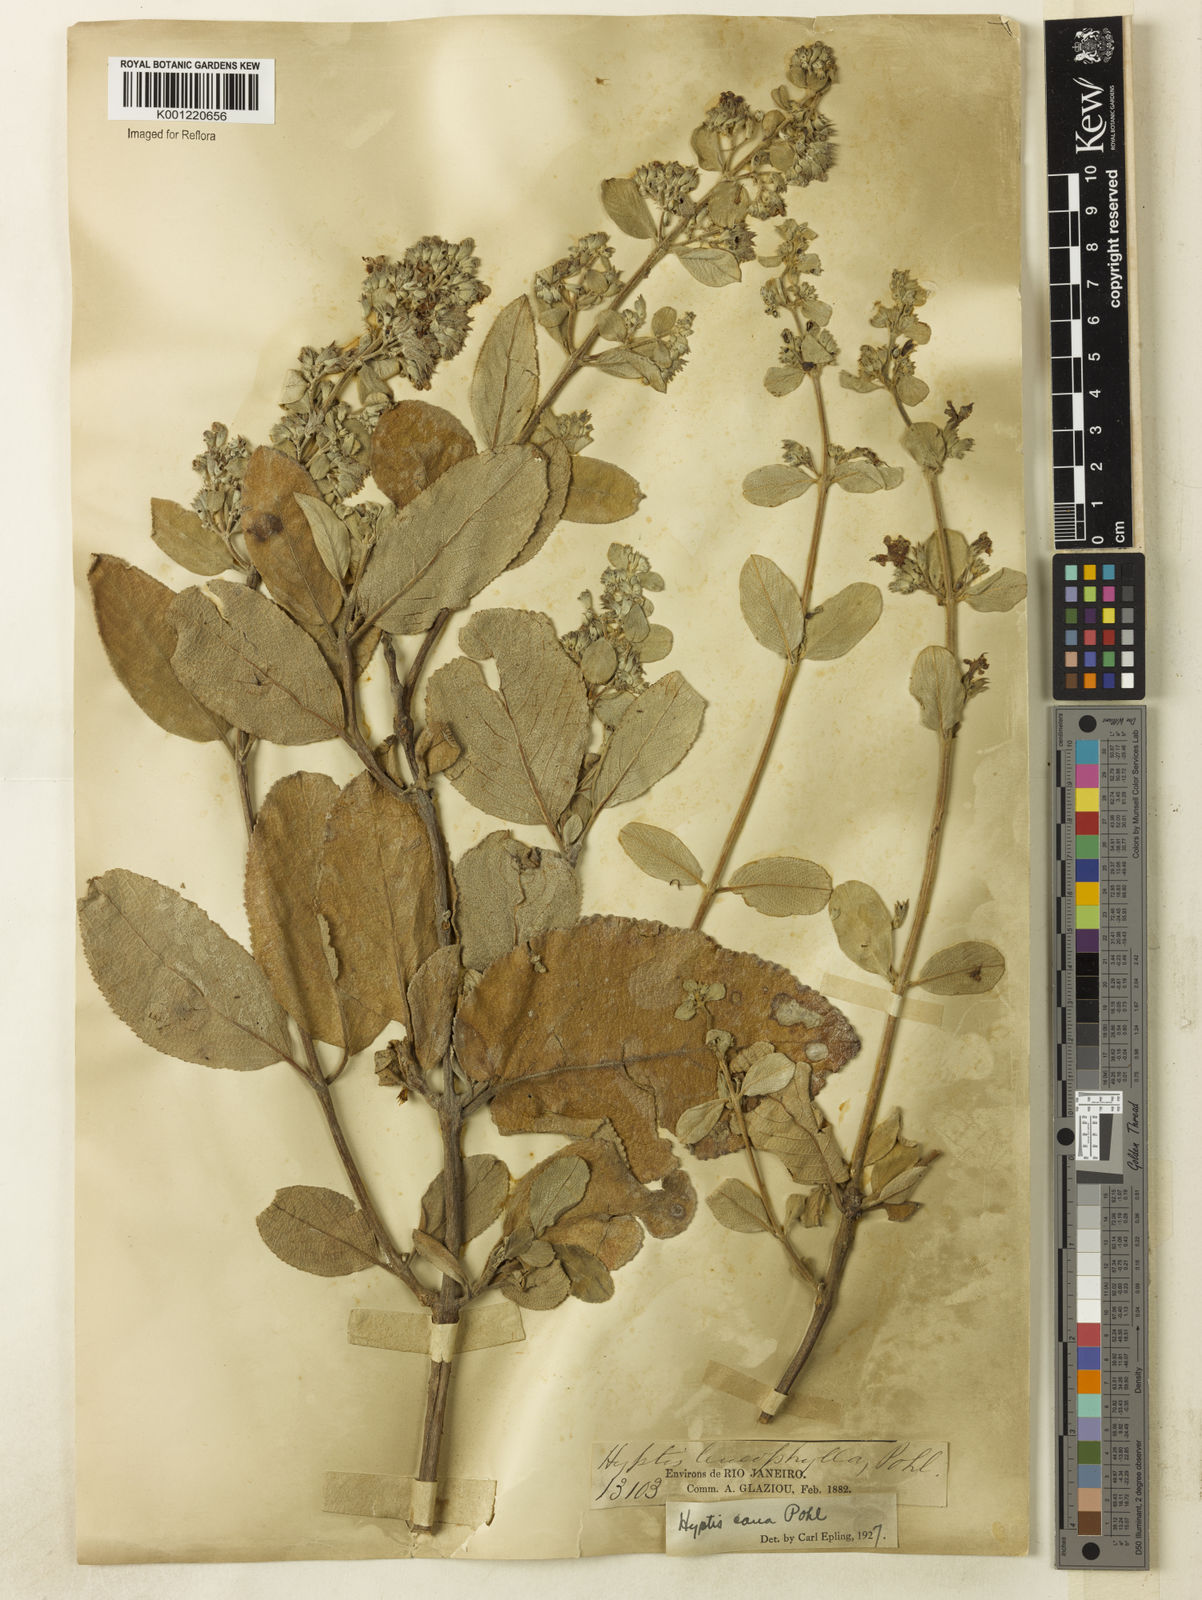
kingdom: Plantae
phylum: Tracheophyta
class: Magnoliopsida
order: Lamiales
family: Lamiaceae
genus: Hyptidendron
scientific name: Hyptidendron canum
